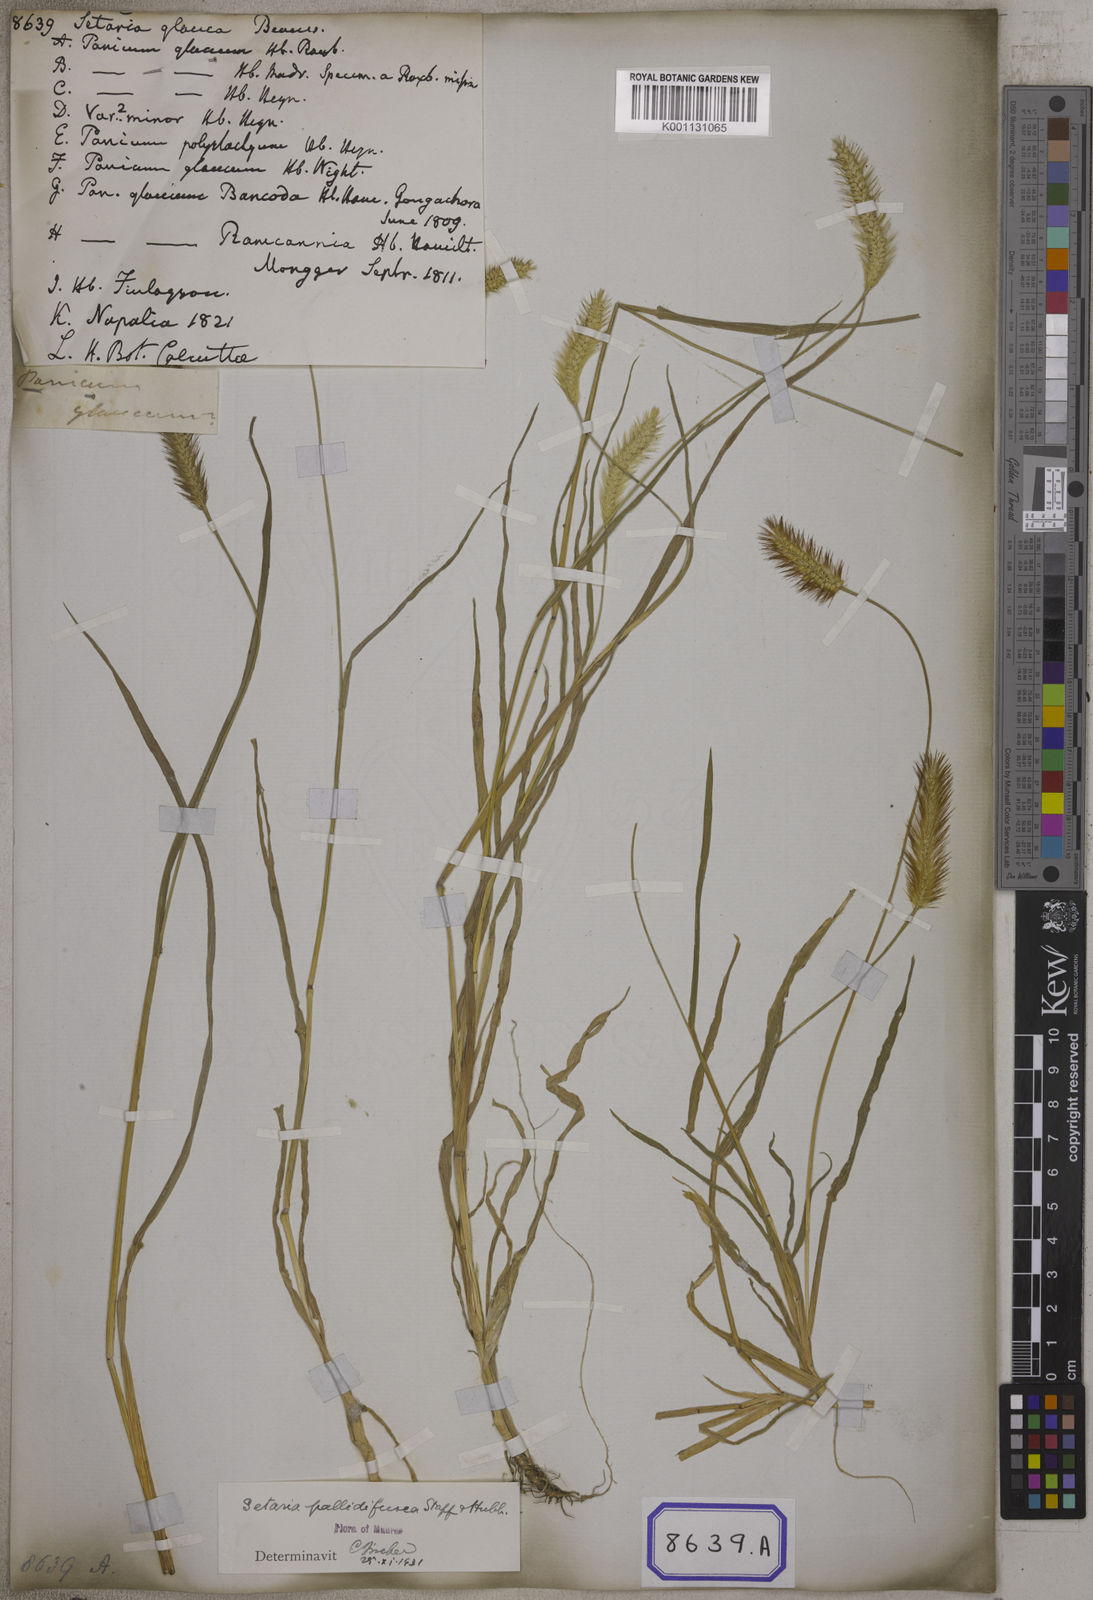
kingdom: Plantae
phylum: Tracheophyta
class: Liliopsida
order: Poales
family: Poaceae
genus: Cenchrus
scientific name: Cenchrus americanus
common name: Pearl millet
